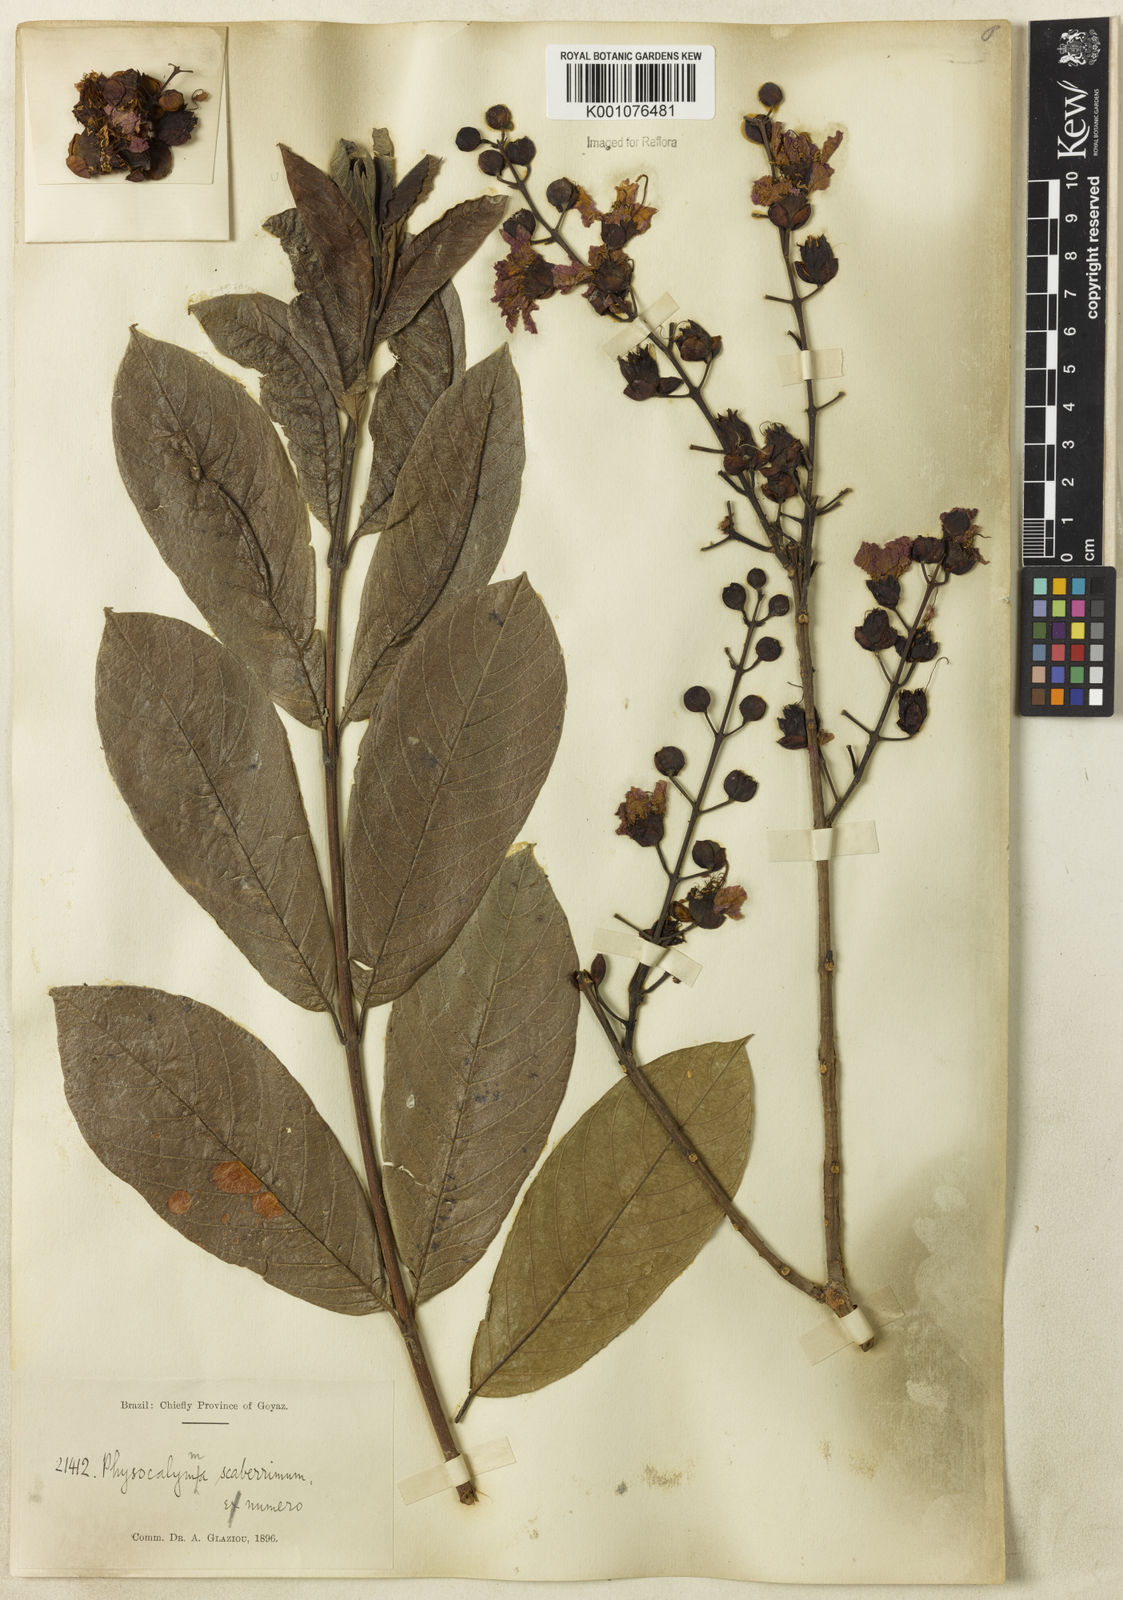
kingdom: Plantae
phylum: Tracheophyta
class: Magnoliopsida
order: Myrtales
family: Lythraceae
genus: Physocalymma
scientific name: Physocalymma scaberrimum
